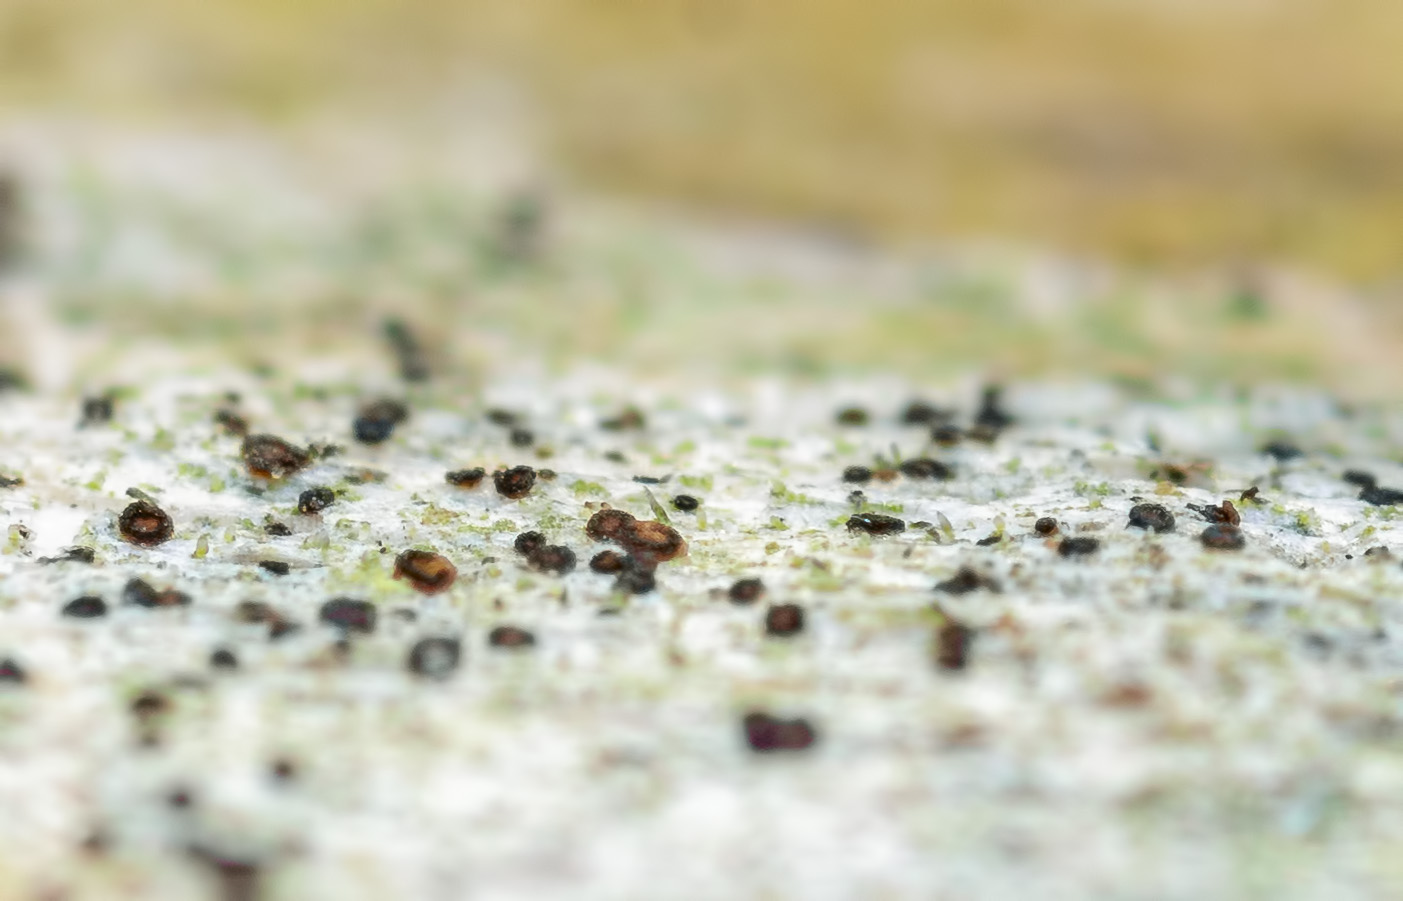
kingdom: Fungi
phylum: Ascomycota
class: Lecanoromycetes
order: Ostropales
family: Gomphillaceae
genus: Jamesiella
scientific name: Jamesiella anastomosans
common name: spids pensellav
